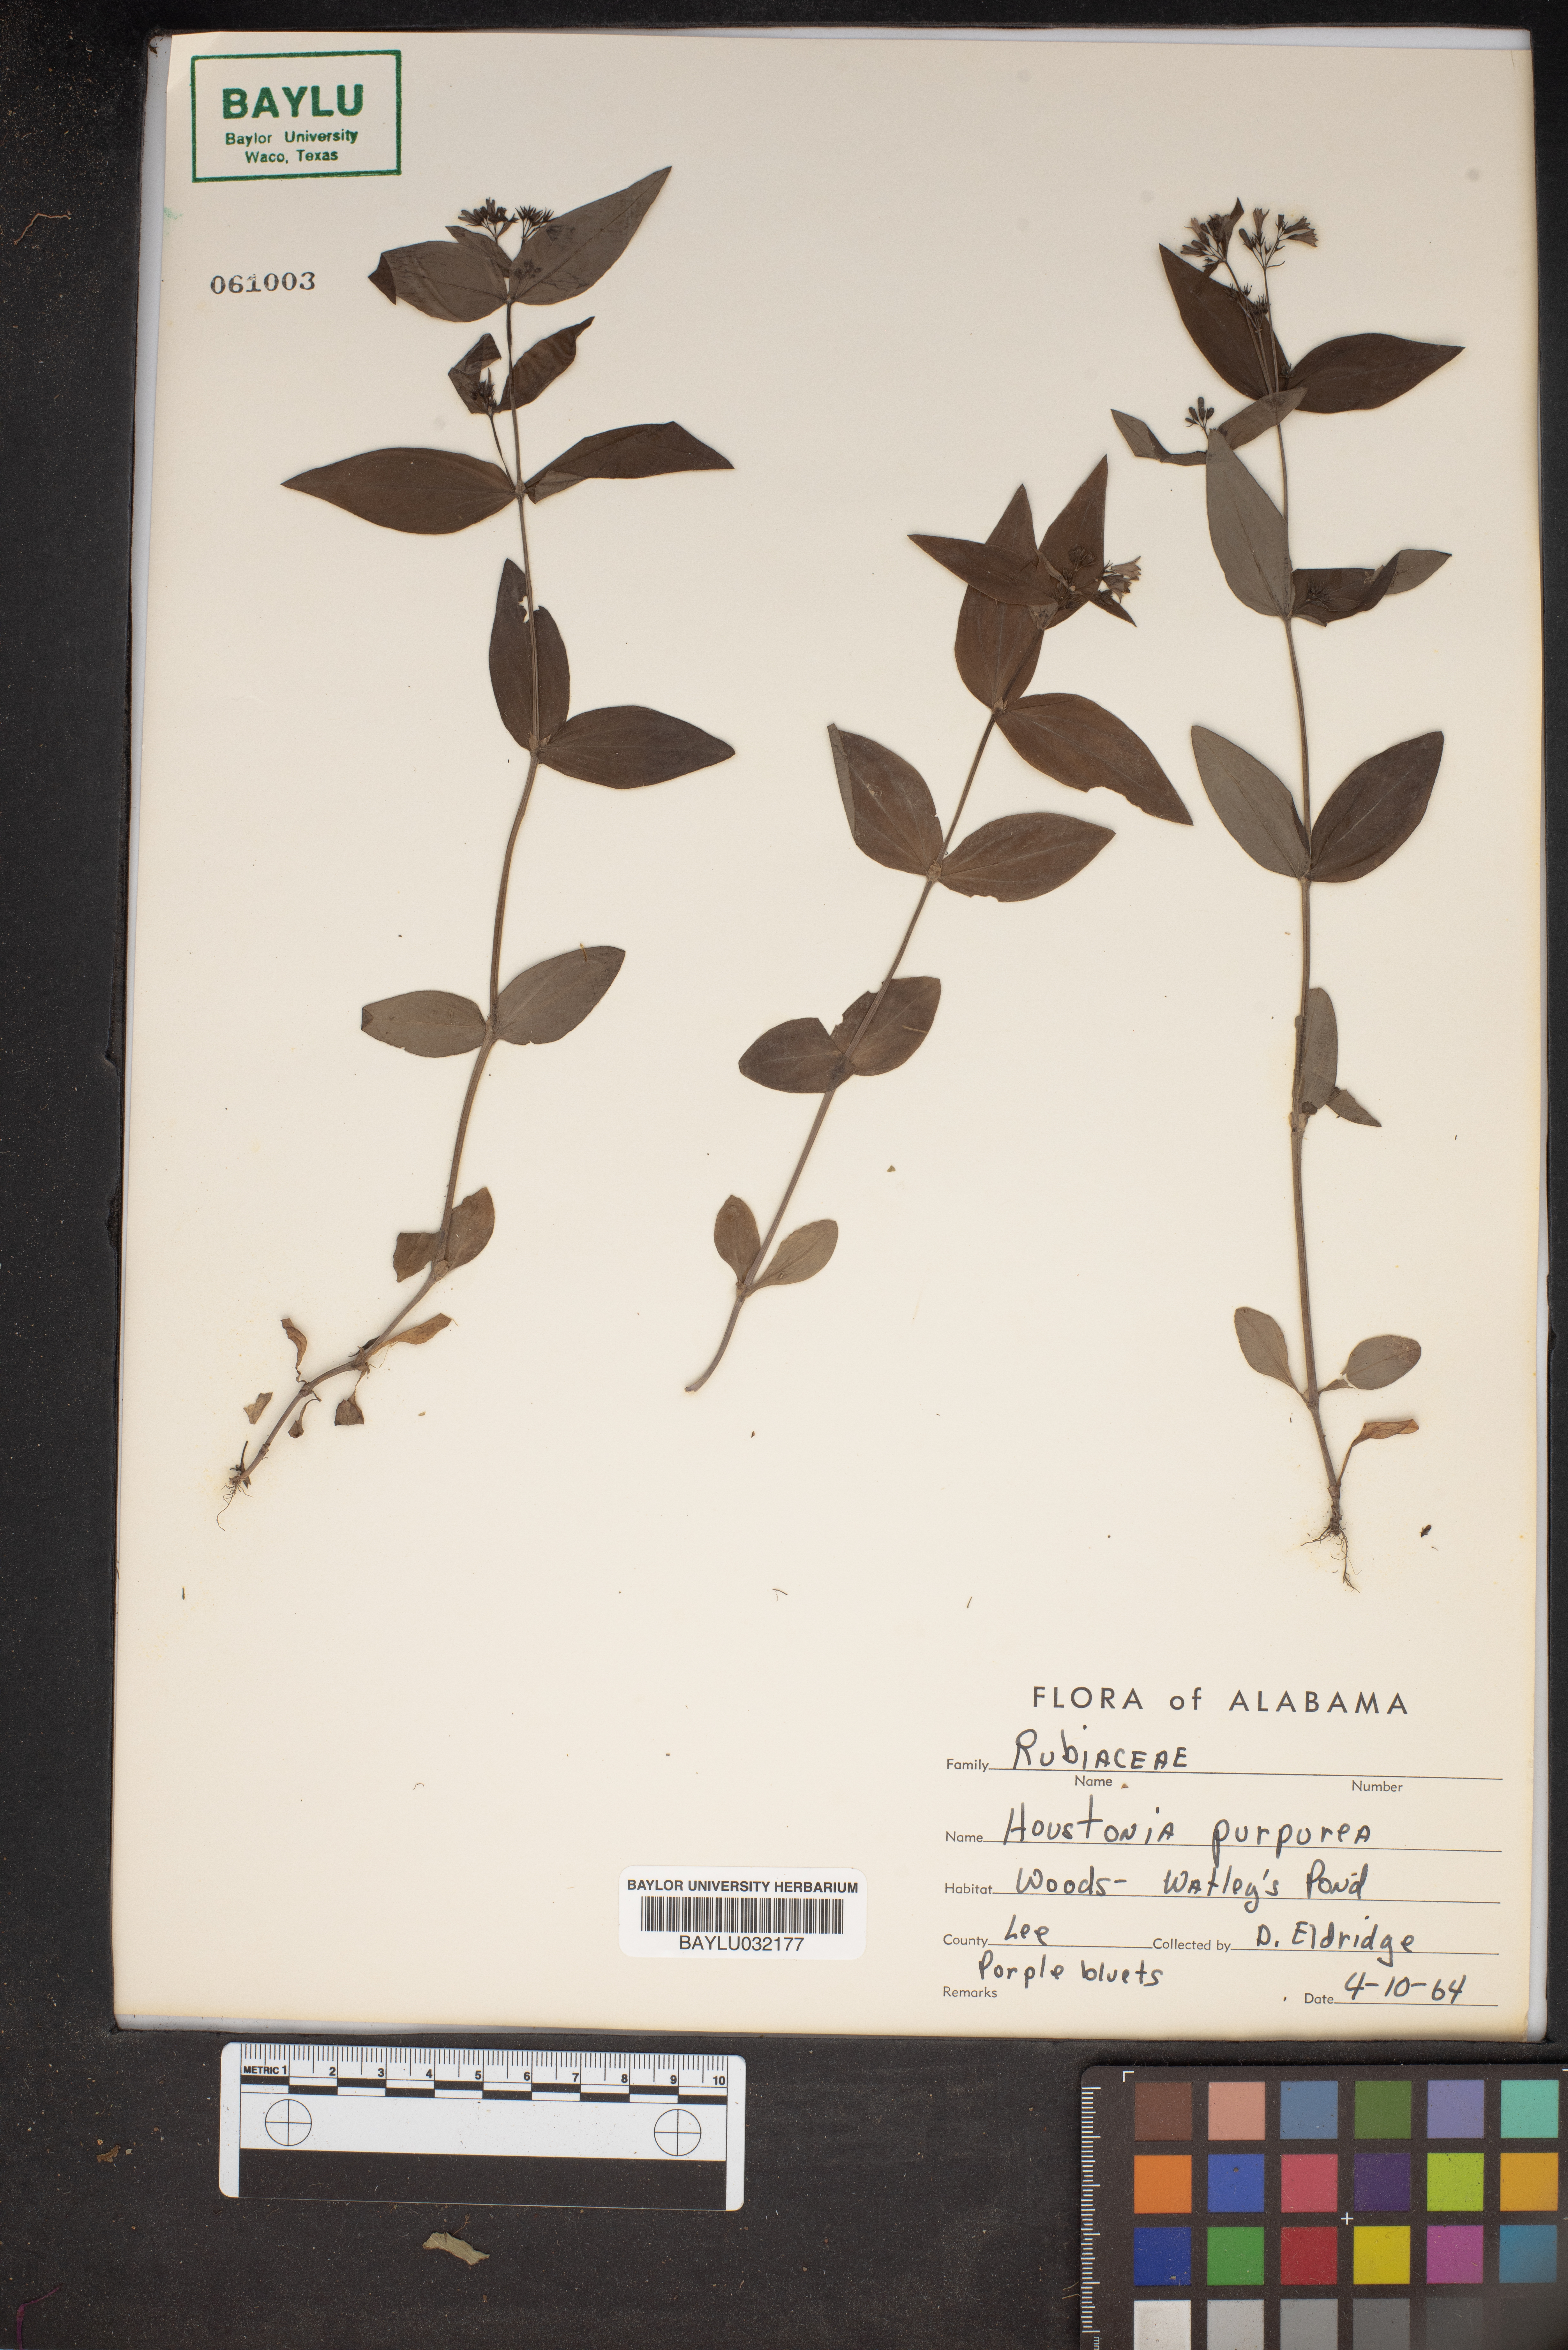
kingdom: Plantae
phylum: Tracheophyta
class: Magnoliopsida
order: Gentianales
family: Rubiaceae
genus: Houstonia
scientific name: Houstonia purpurea
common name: Summer bluet
